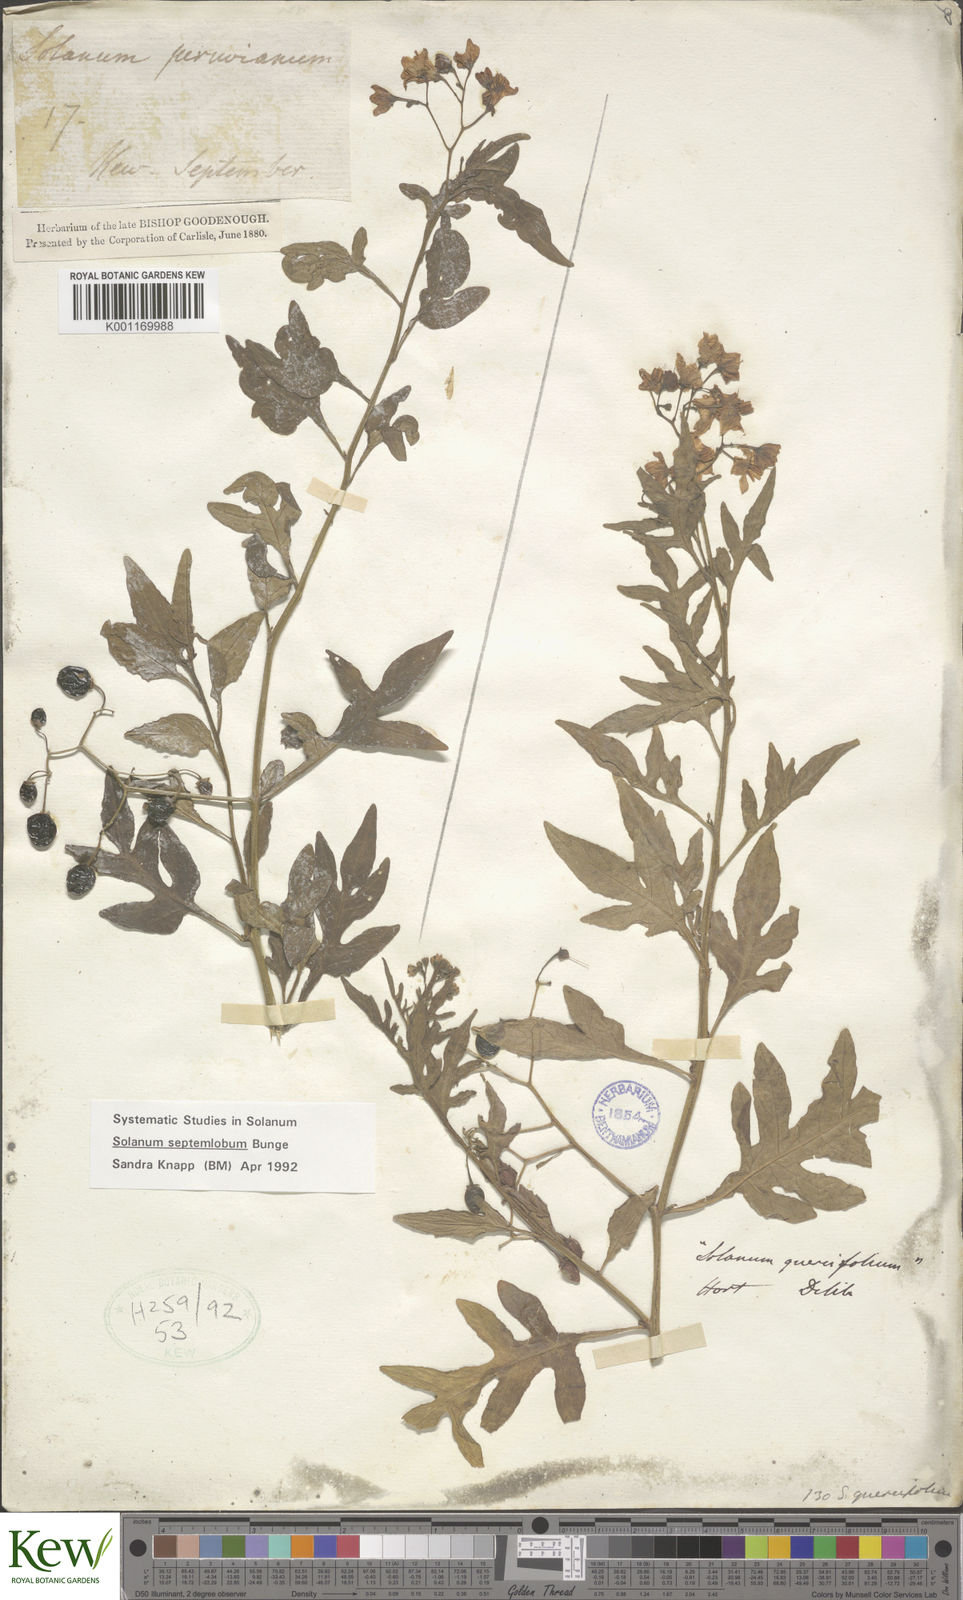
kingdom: Plantae
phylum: Tracheophyta
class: Magnoliopsida
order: Solanales
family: Solanaceae
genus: Solanum
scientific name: Solanum septemlobum
